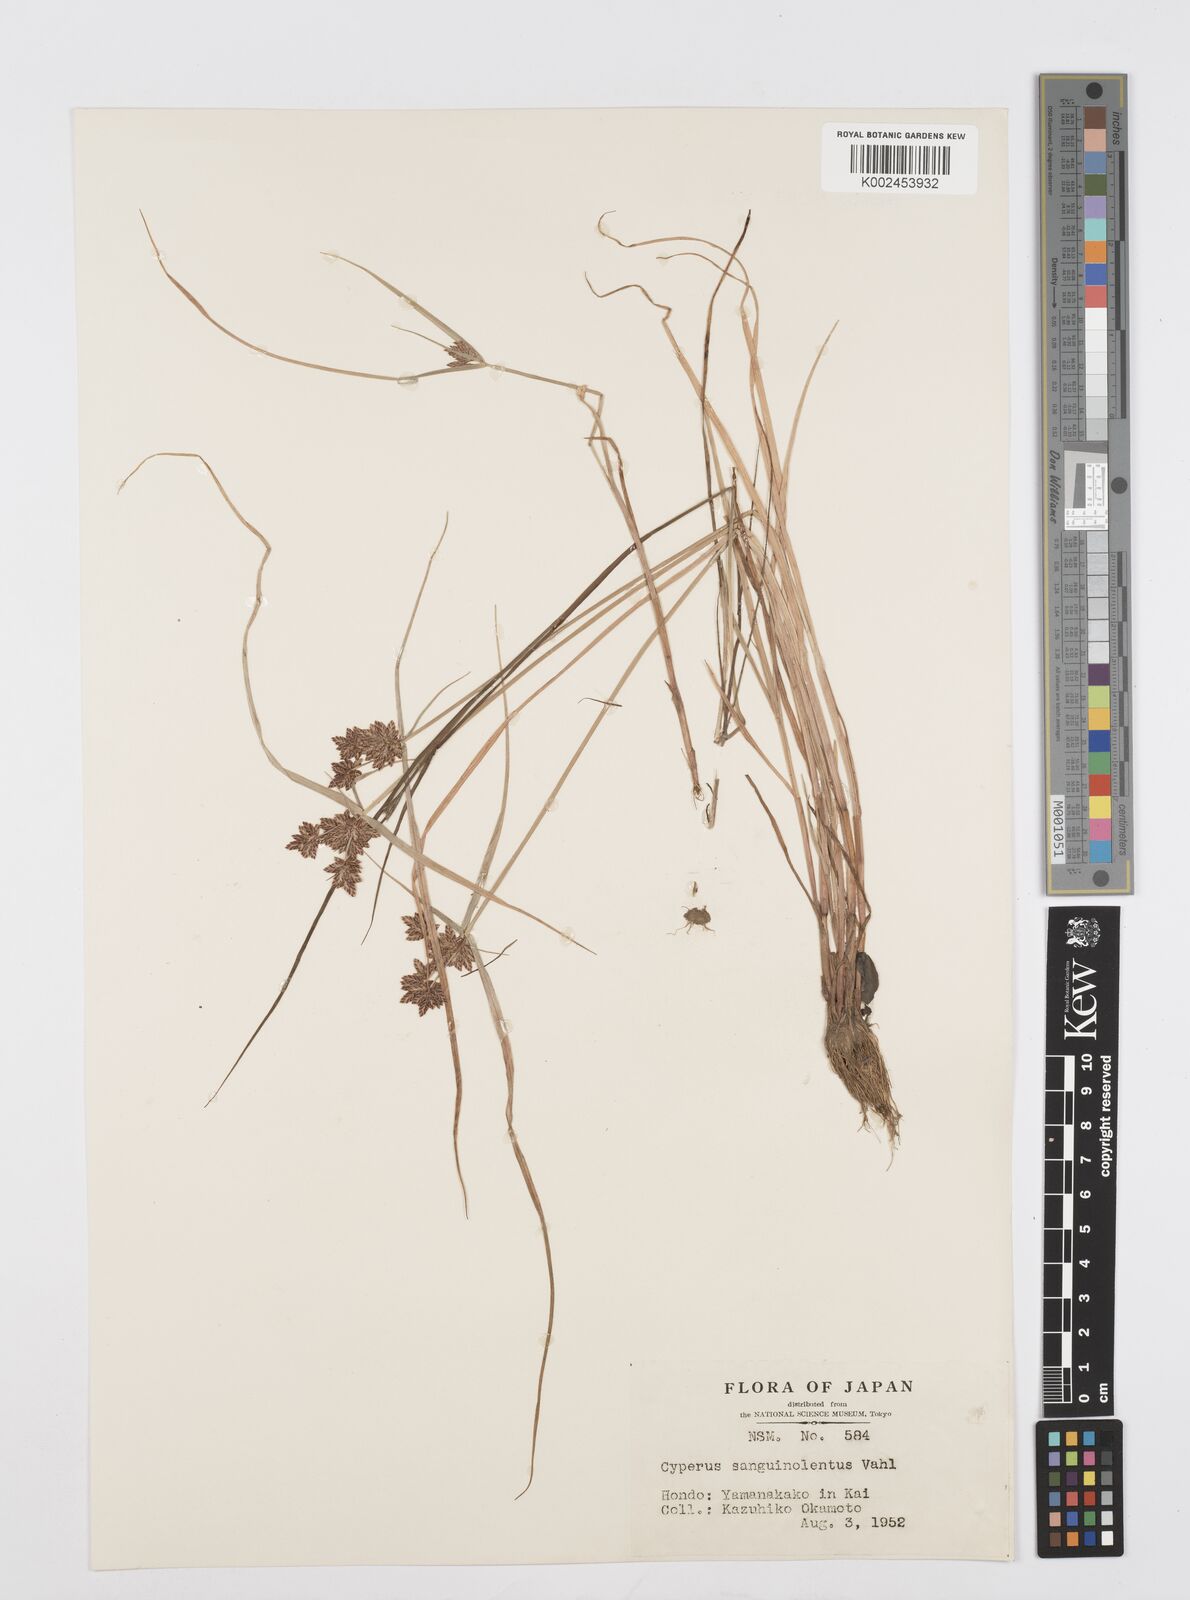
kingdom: Plantae
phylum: Tracheophyta
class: Liliopsida
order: Poales
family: Cyperaceae
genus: Cyperus
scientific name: Cyperus sanguinolentus
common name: Purpleglume flatsedge
